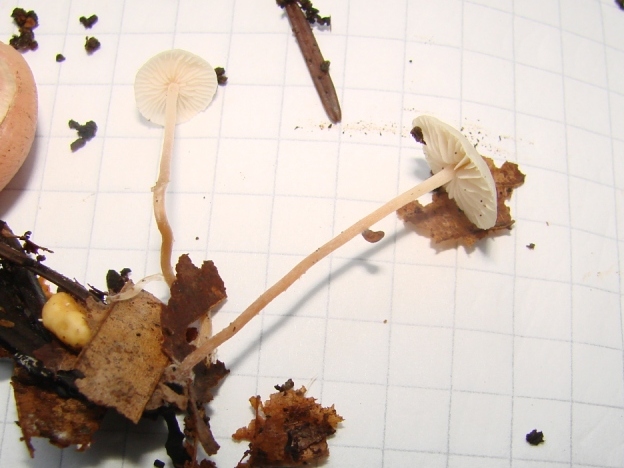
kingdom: Fungi
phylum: Basidiomycota
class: Agaricomycetes
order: Agaricales
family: Tricholomataceae
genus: Collybia
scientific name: Collybia cookei
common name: gulknoldet lighat
